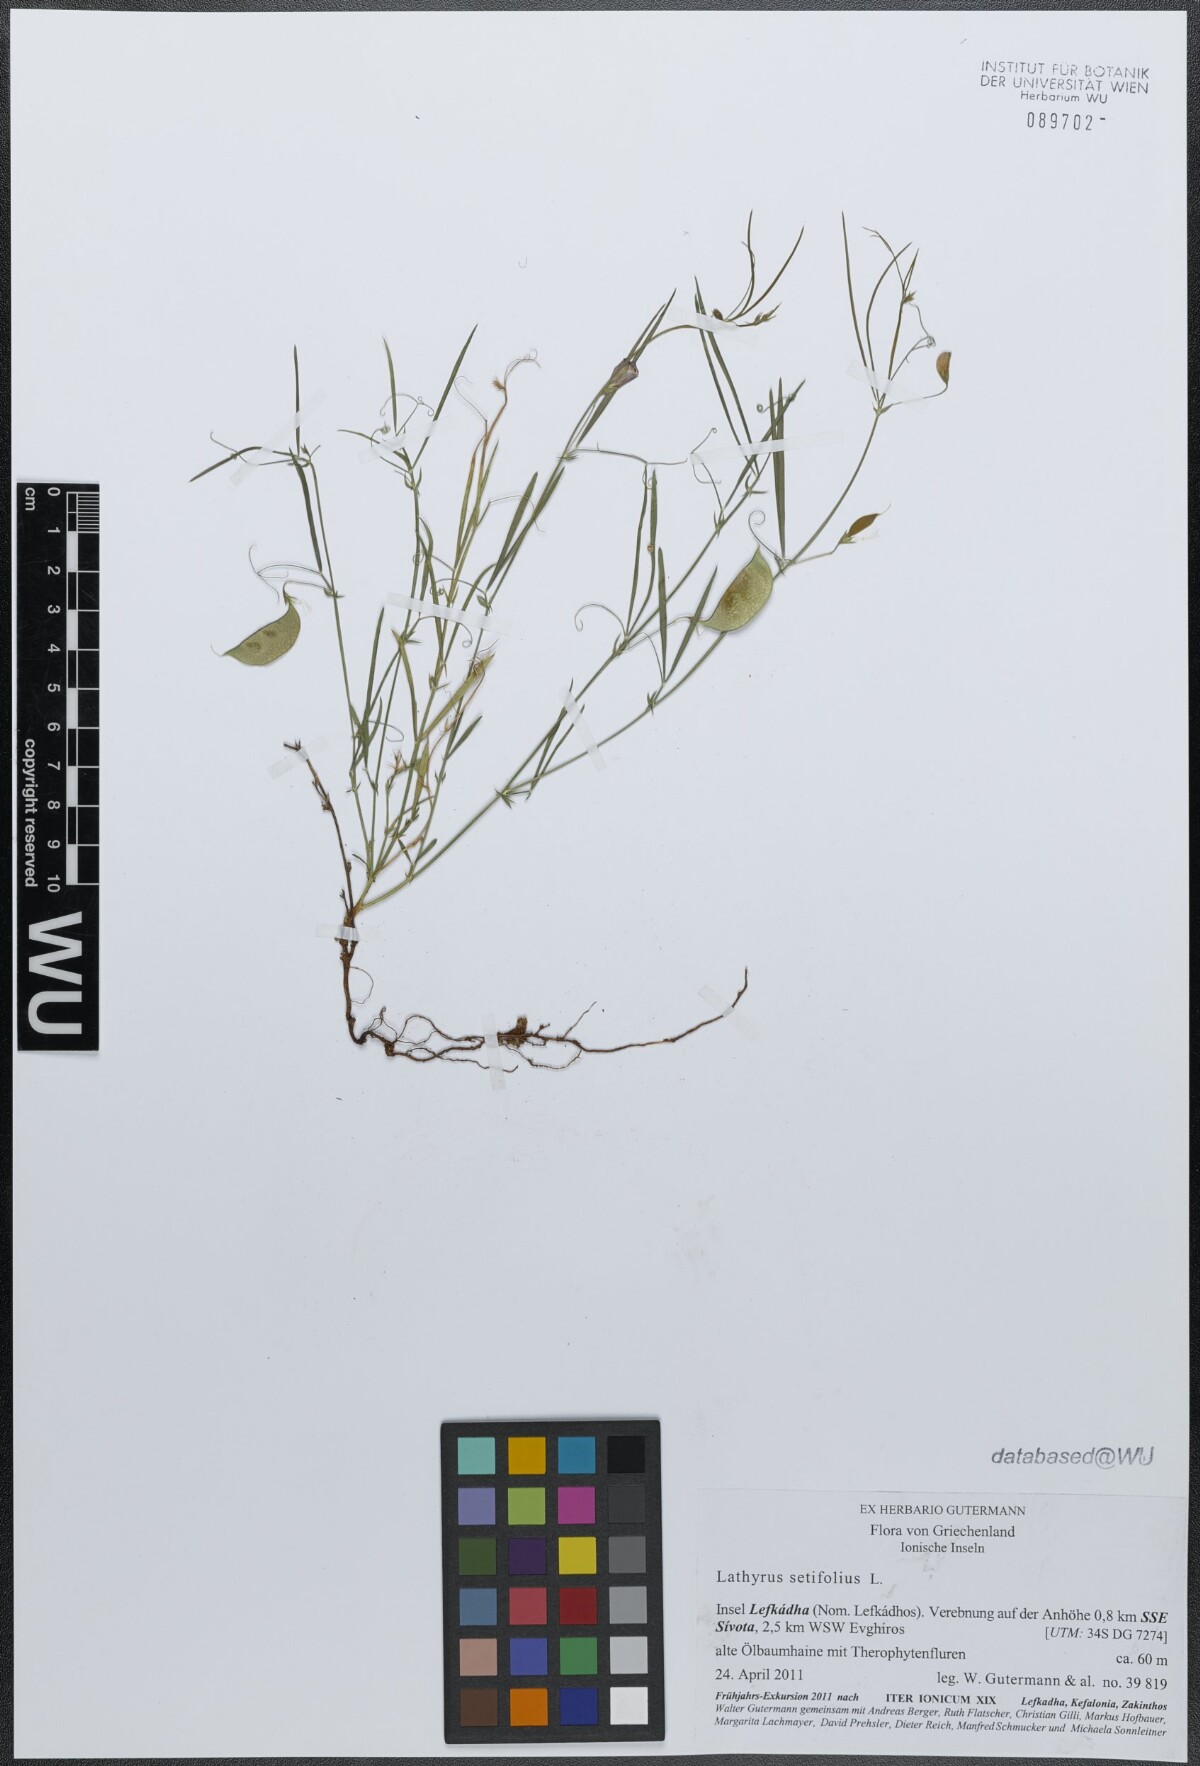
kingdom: Plantae
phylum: Tracheophyta
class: Magnoliopsida
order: Fabales
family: Fabaceae
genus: Lathyrus
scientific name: Lathyrus setifolius
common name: Brown vetchling
